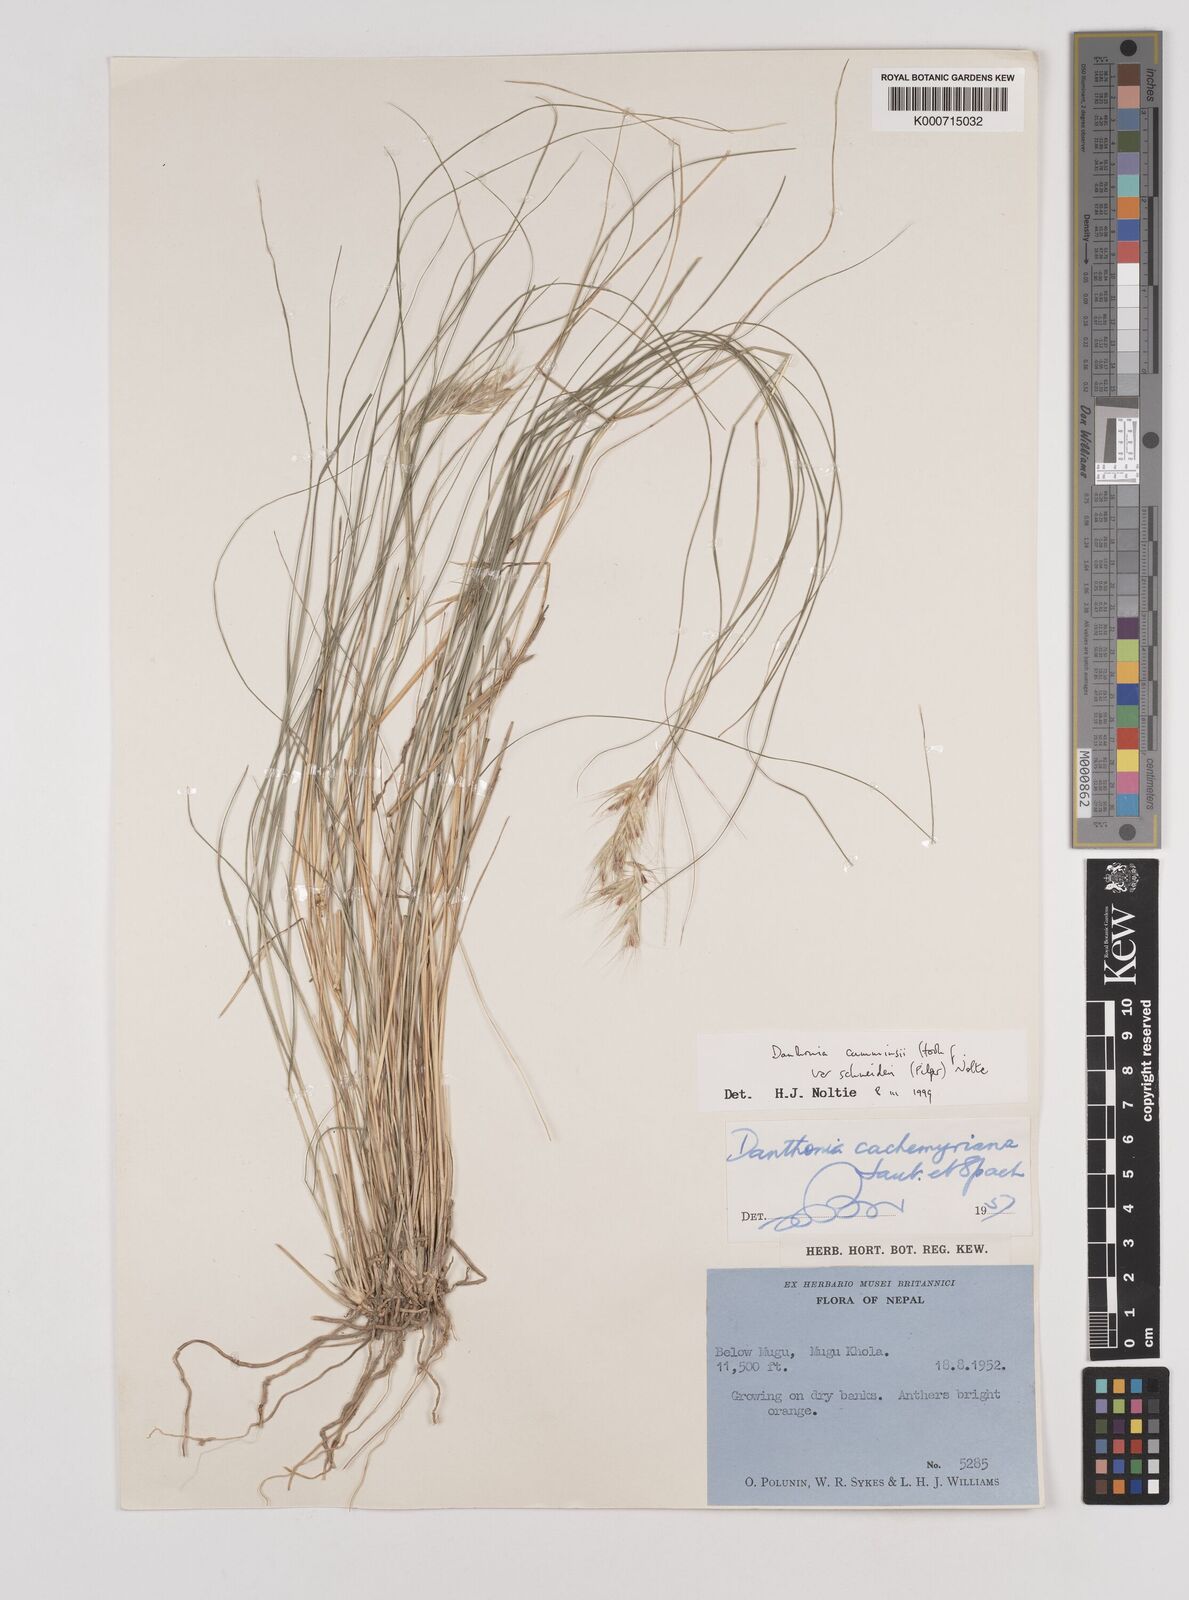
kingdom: Plantae
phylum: Tracheophyta
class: Liliopsida
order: Poales
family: Poaceae
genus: Rytidosperma
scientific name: Rytidosperma
